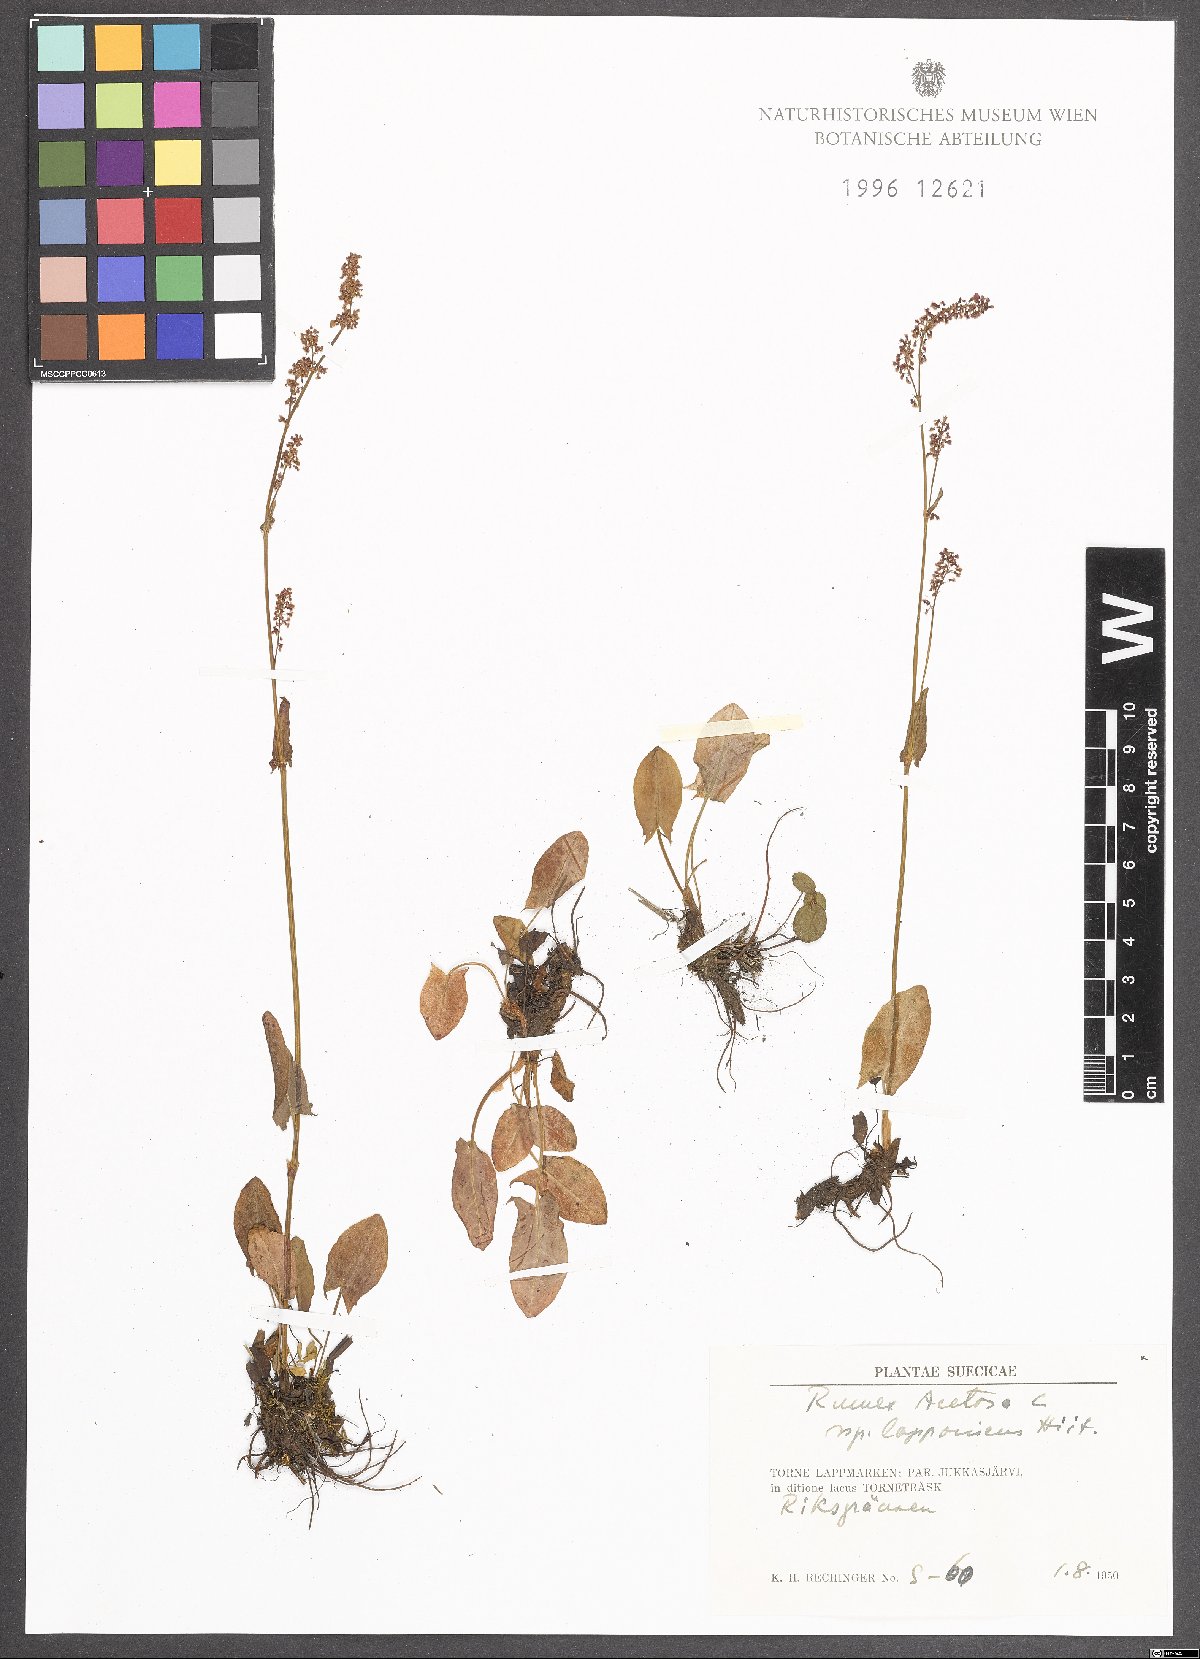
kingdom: Plantae
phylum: Tracheophyta
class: Magnoliopsida
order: Caryophyllales
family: Polygonaceae
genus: Rumex
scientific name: Rumex acetosa
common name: Garden sorrel
